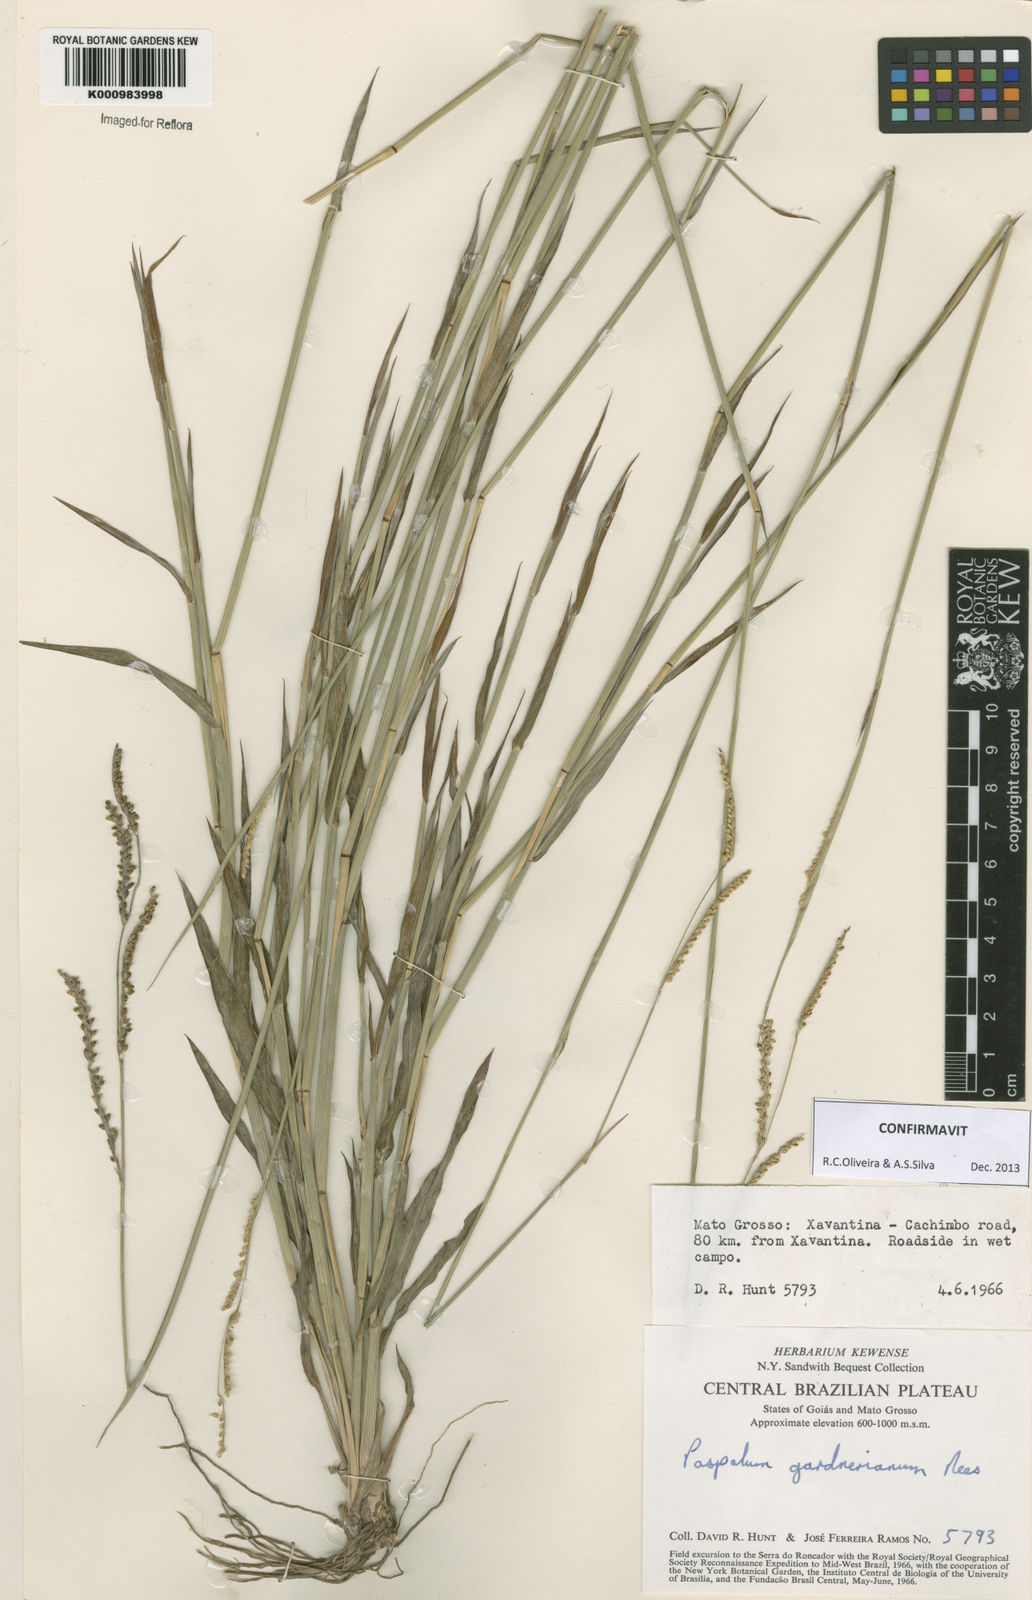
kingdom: Plantae
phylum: Tracheophyta
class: Liliopsida
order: Poales
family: Poaceae
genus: Paspalum
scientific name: Paspalum gardnerianum
